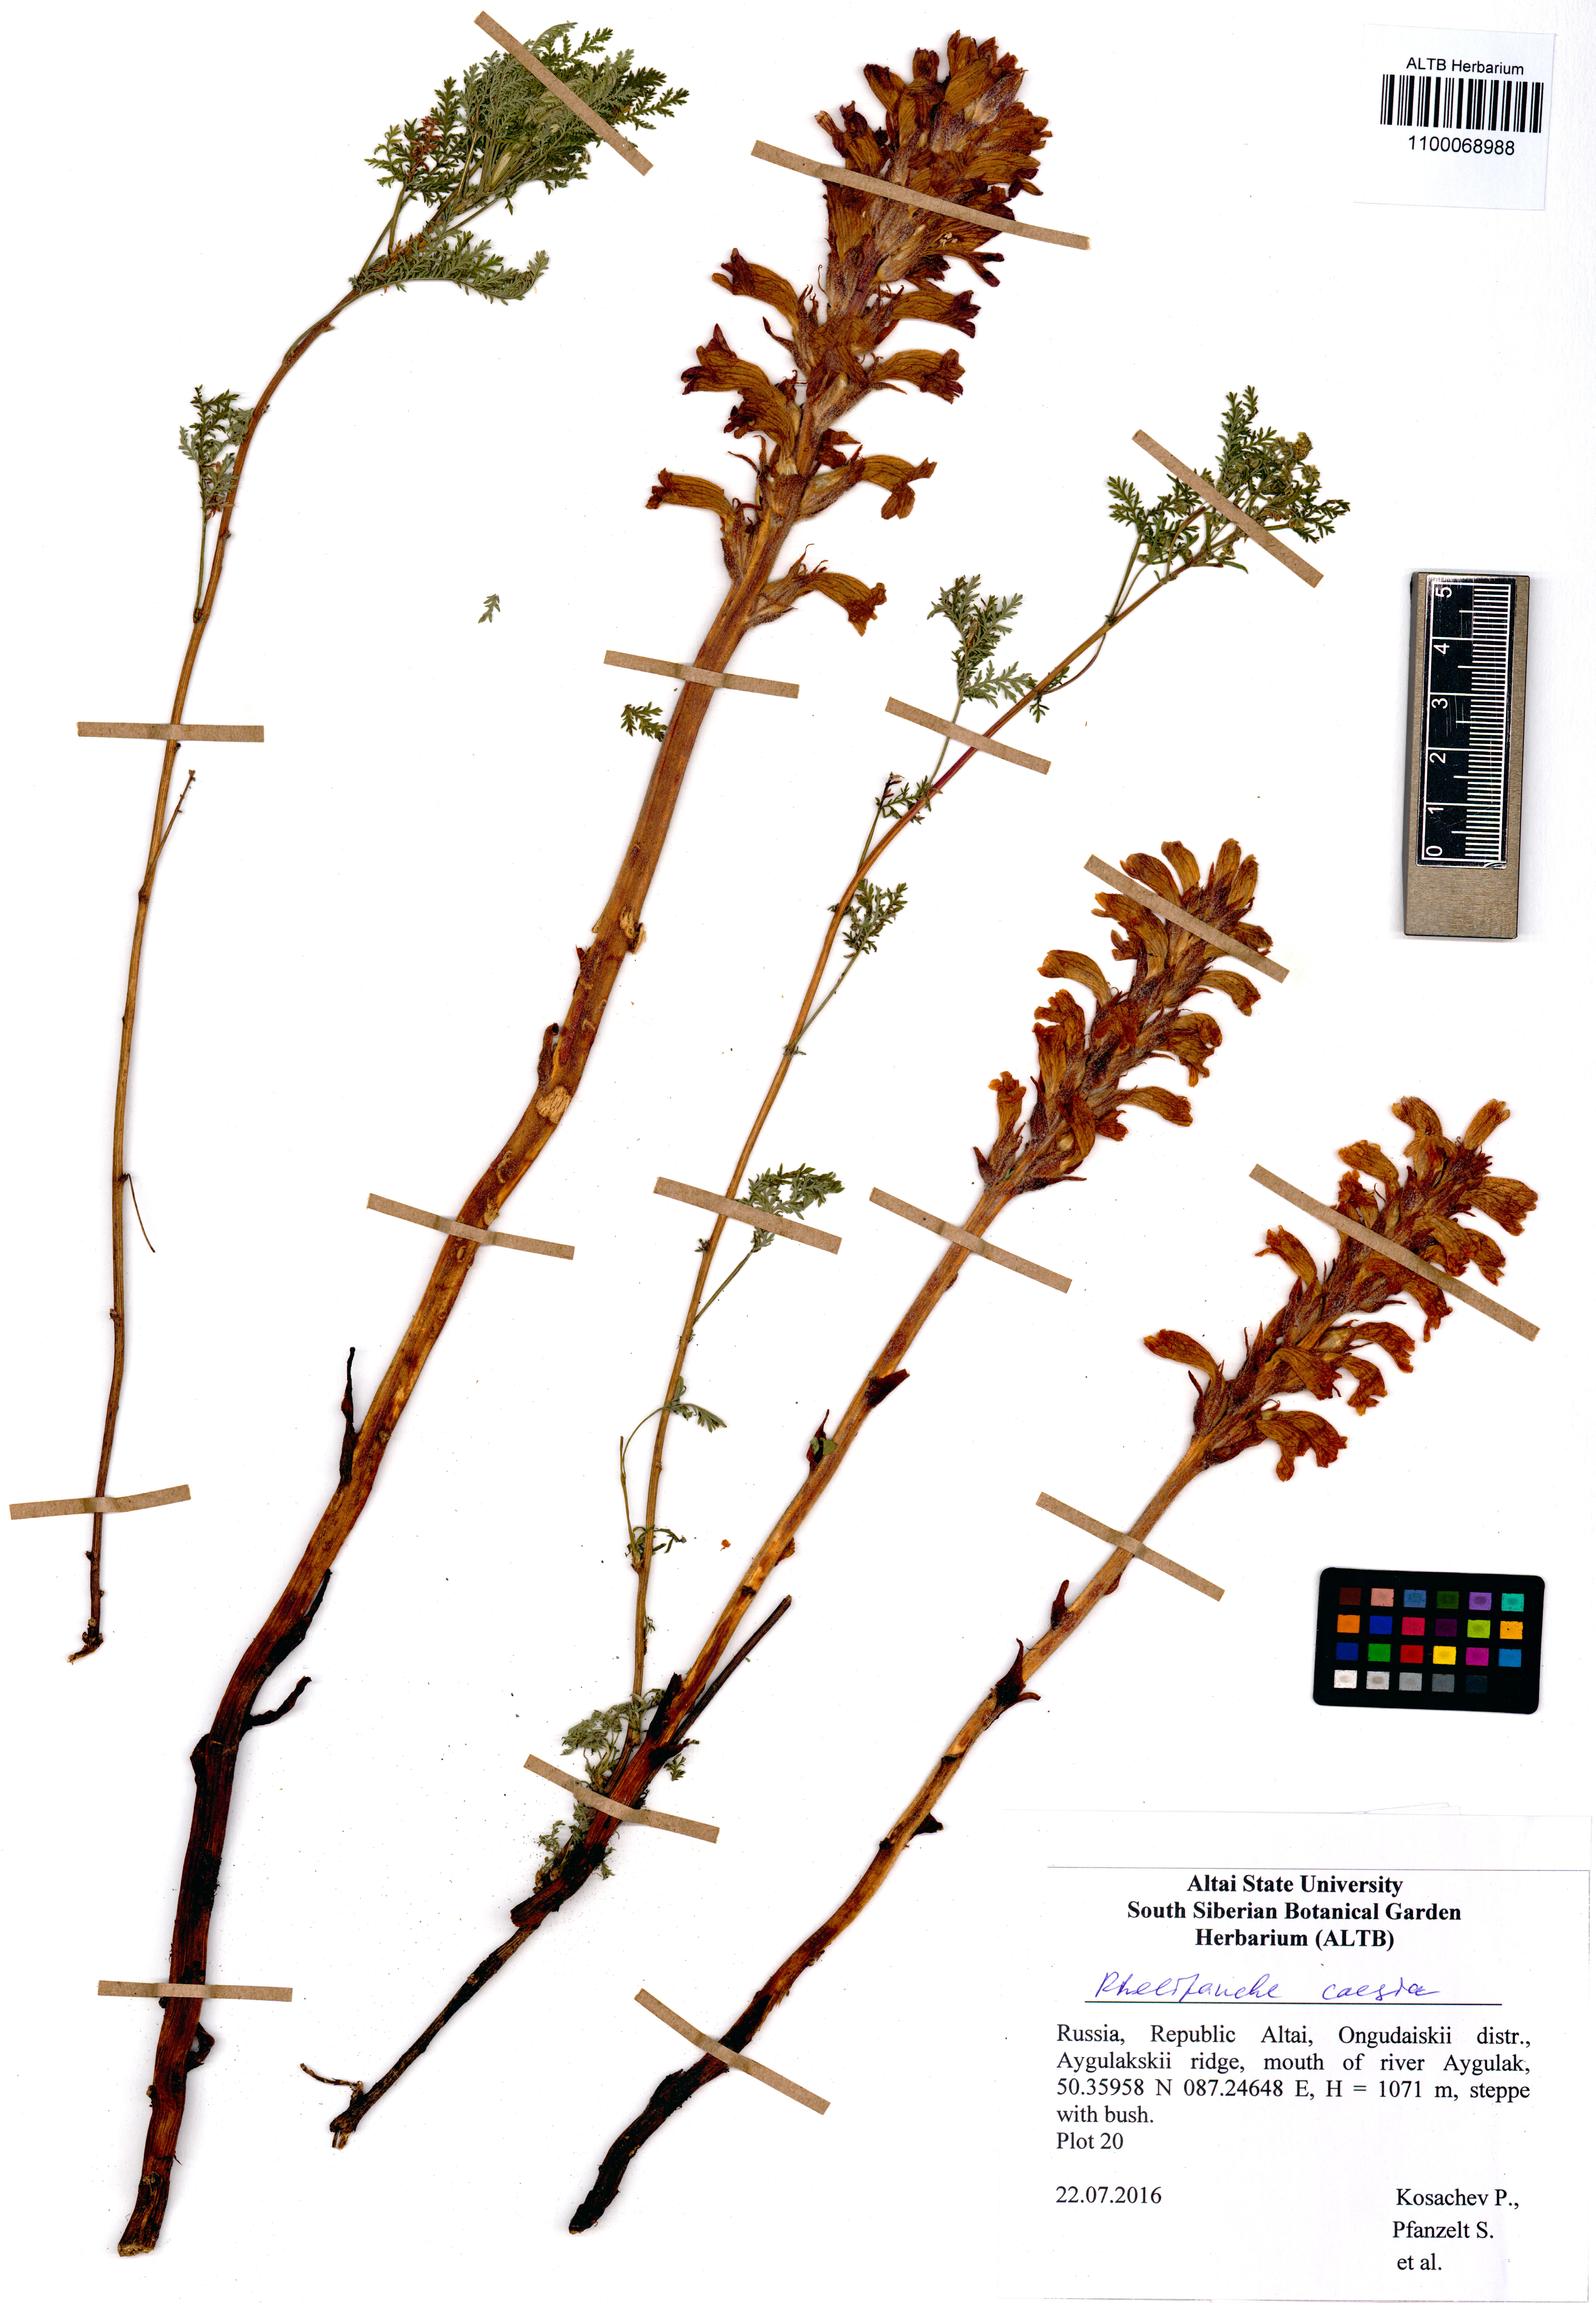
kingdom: Plantae
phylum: Tracheophyta
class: Magnoliopsida
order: Lamiales
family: Orobanchaceae
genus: Phelipanche
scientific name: Phelipanche caesia
